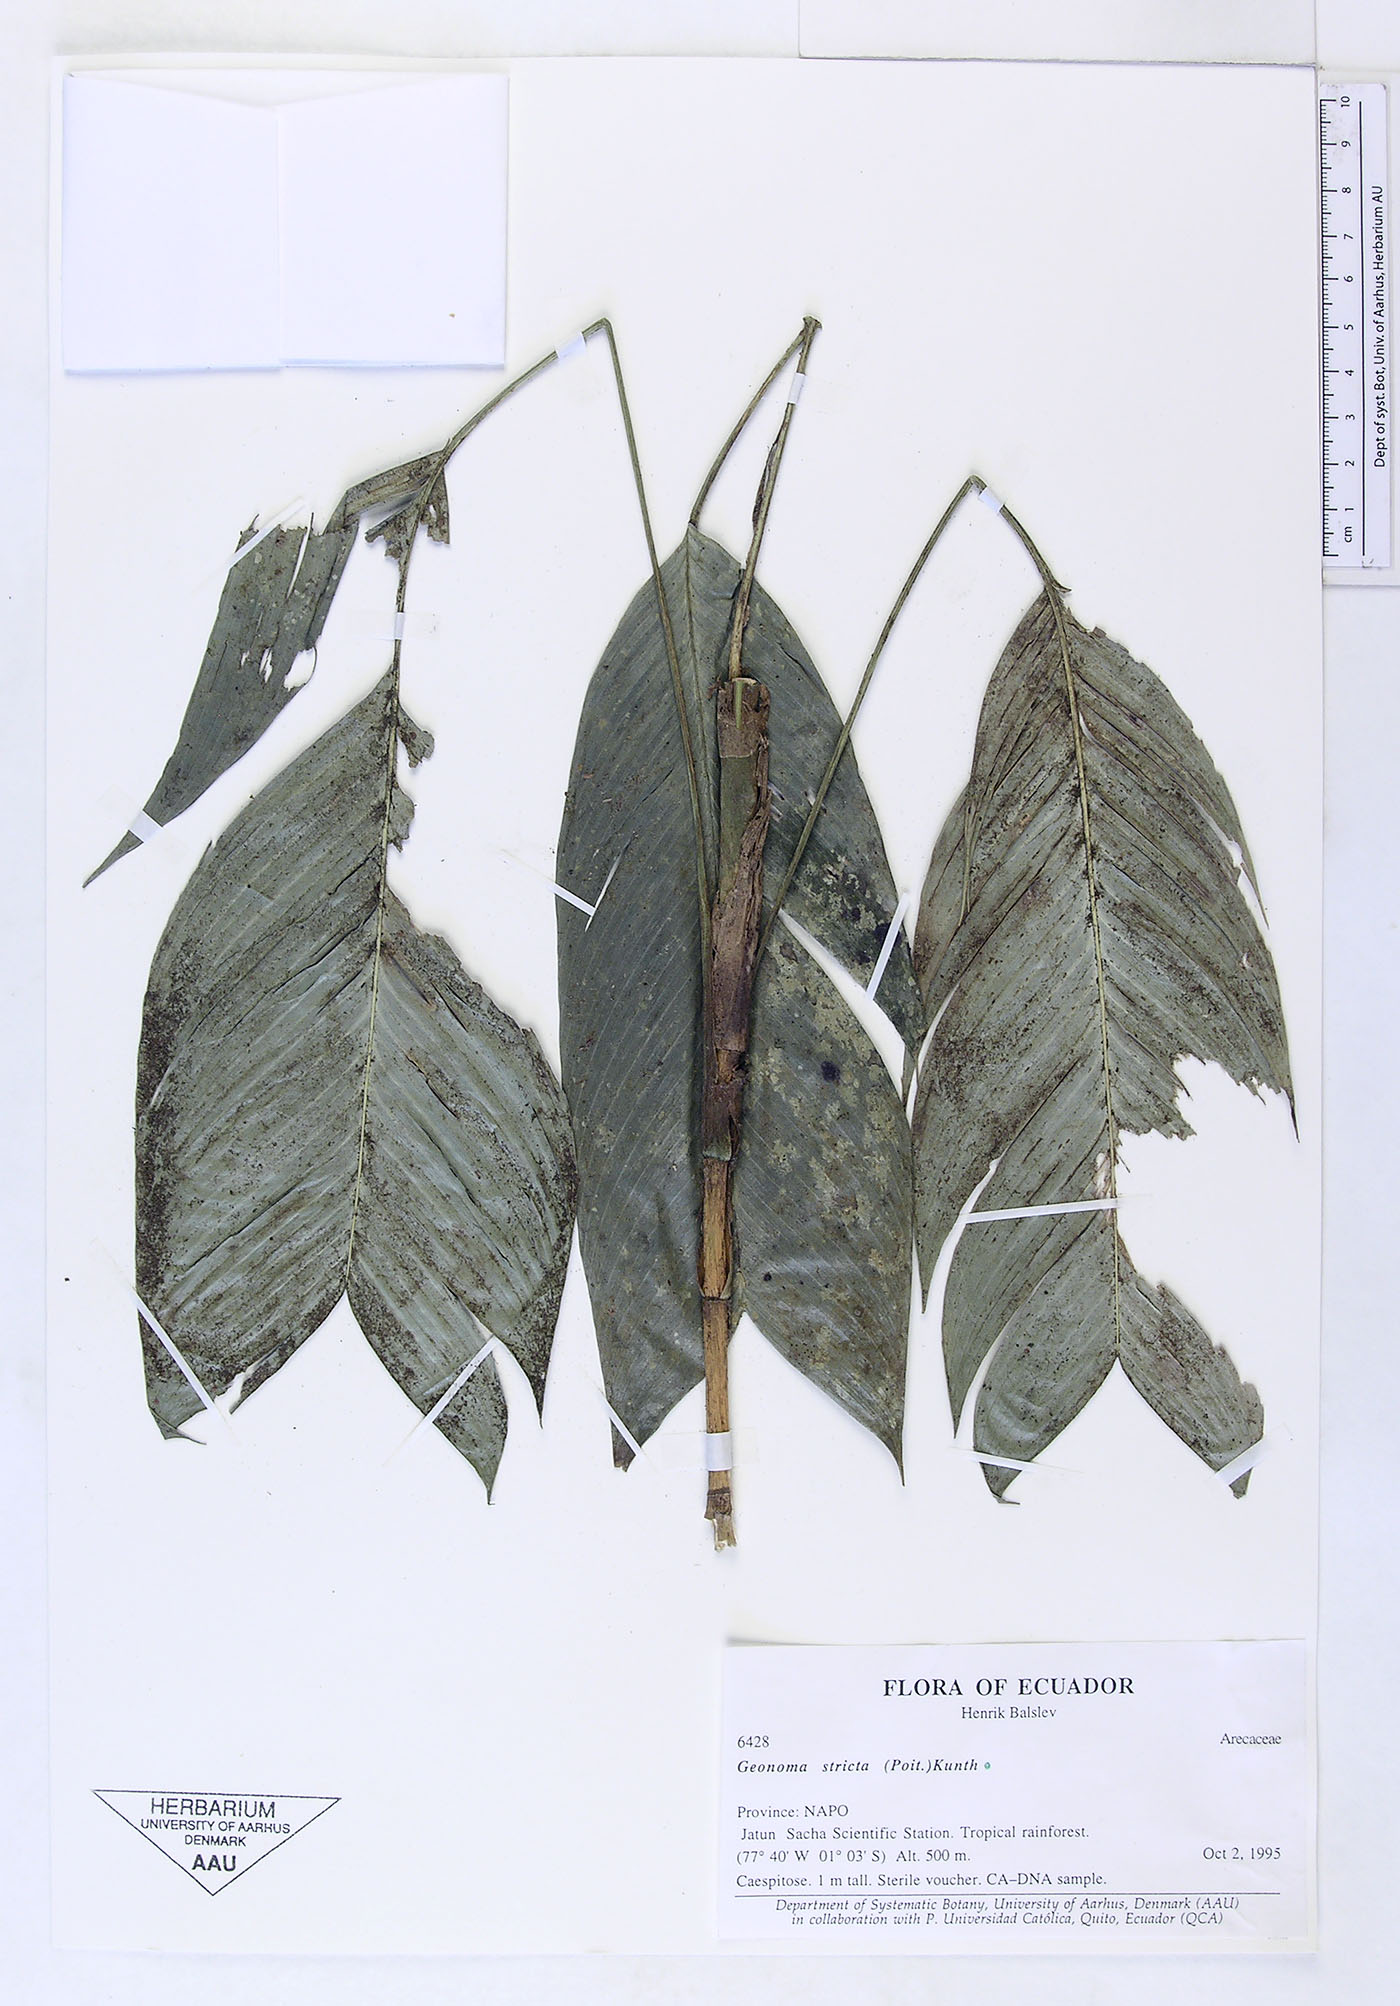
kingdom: Plantae
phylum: Tracheophyta
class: Liliopsida
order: Arecales
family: Arecaceae
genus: Geonoma
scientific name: Geonoma stricta
